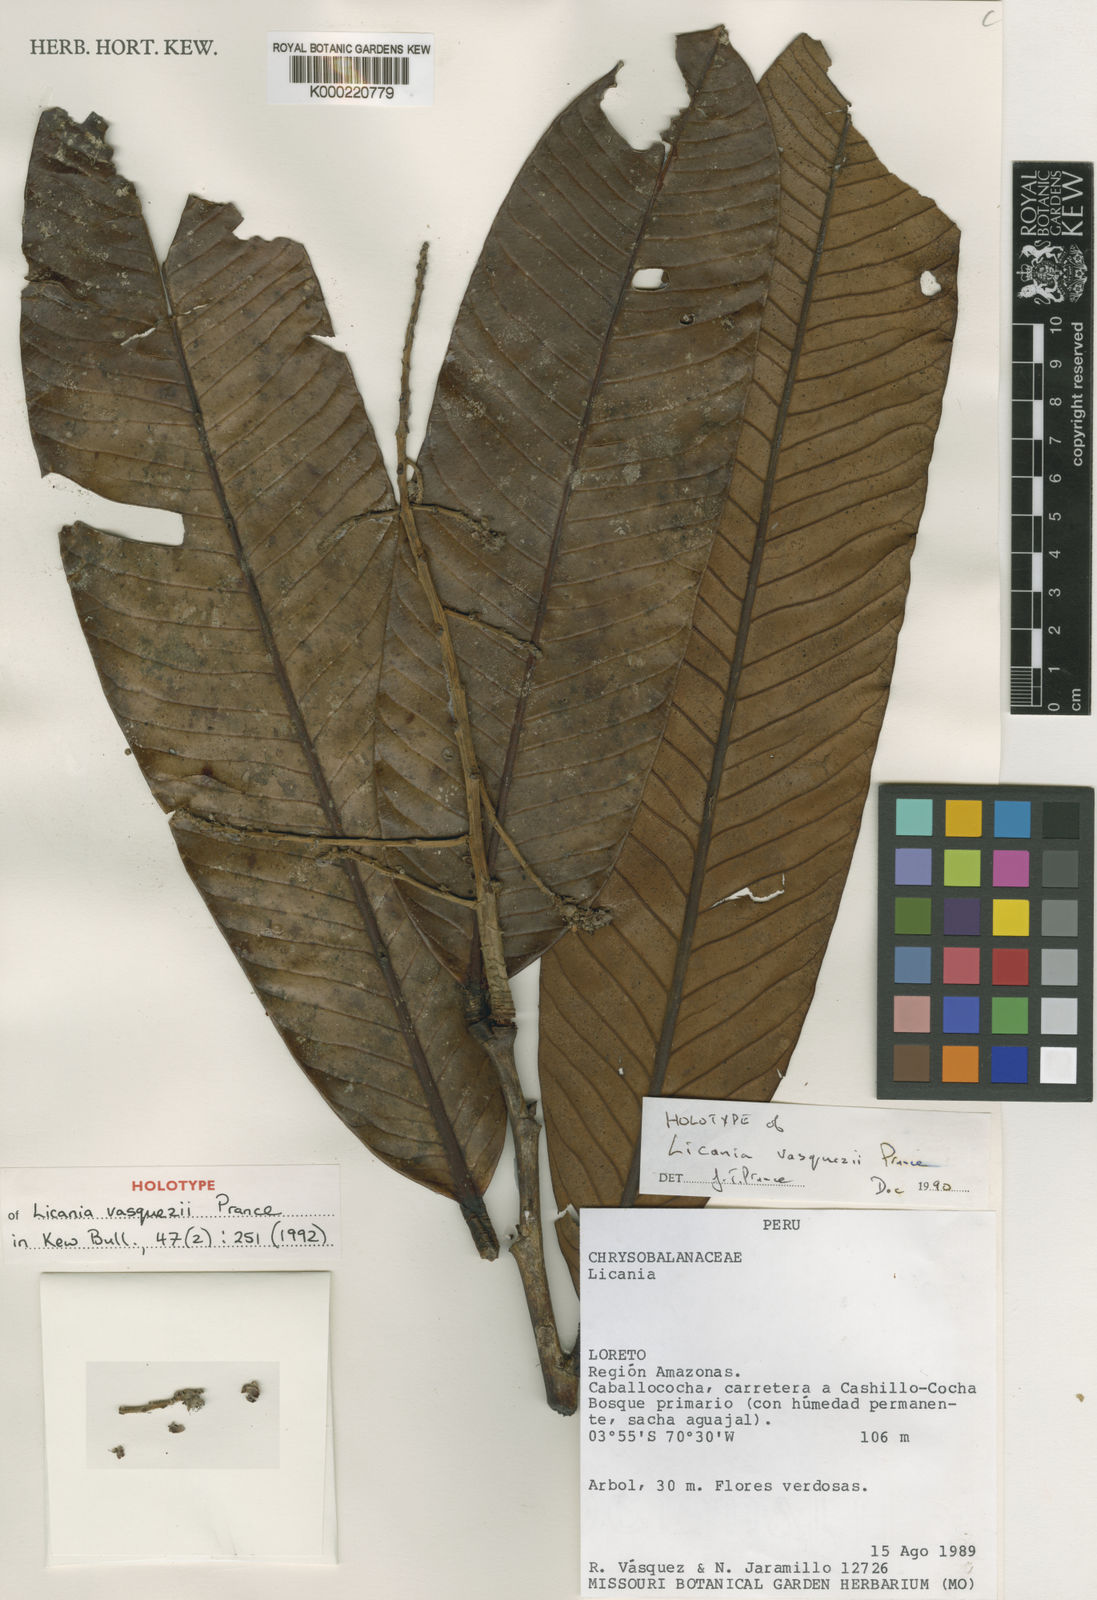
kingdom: Plantae
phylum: Tracheophyta
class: Magnoliopsida
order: Malpighiales
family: Chrysobalanaceae
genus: Moquilea
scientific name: Moquilea vasquezii
